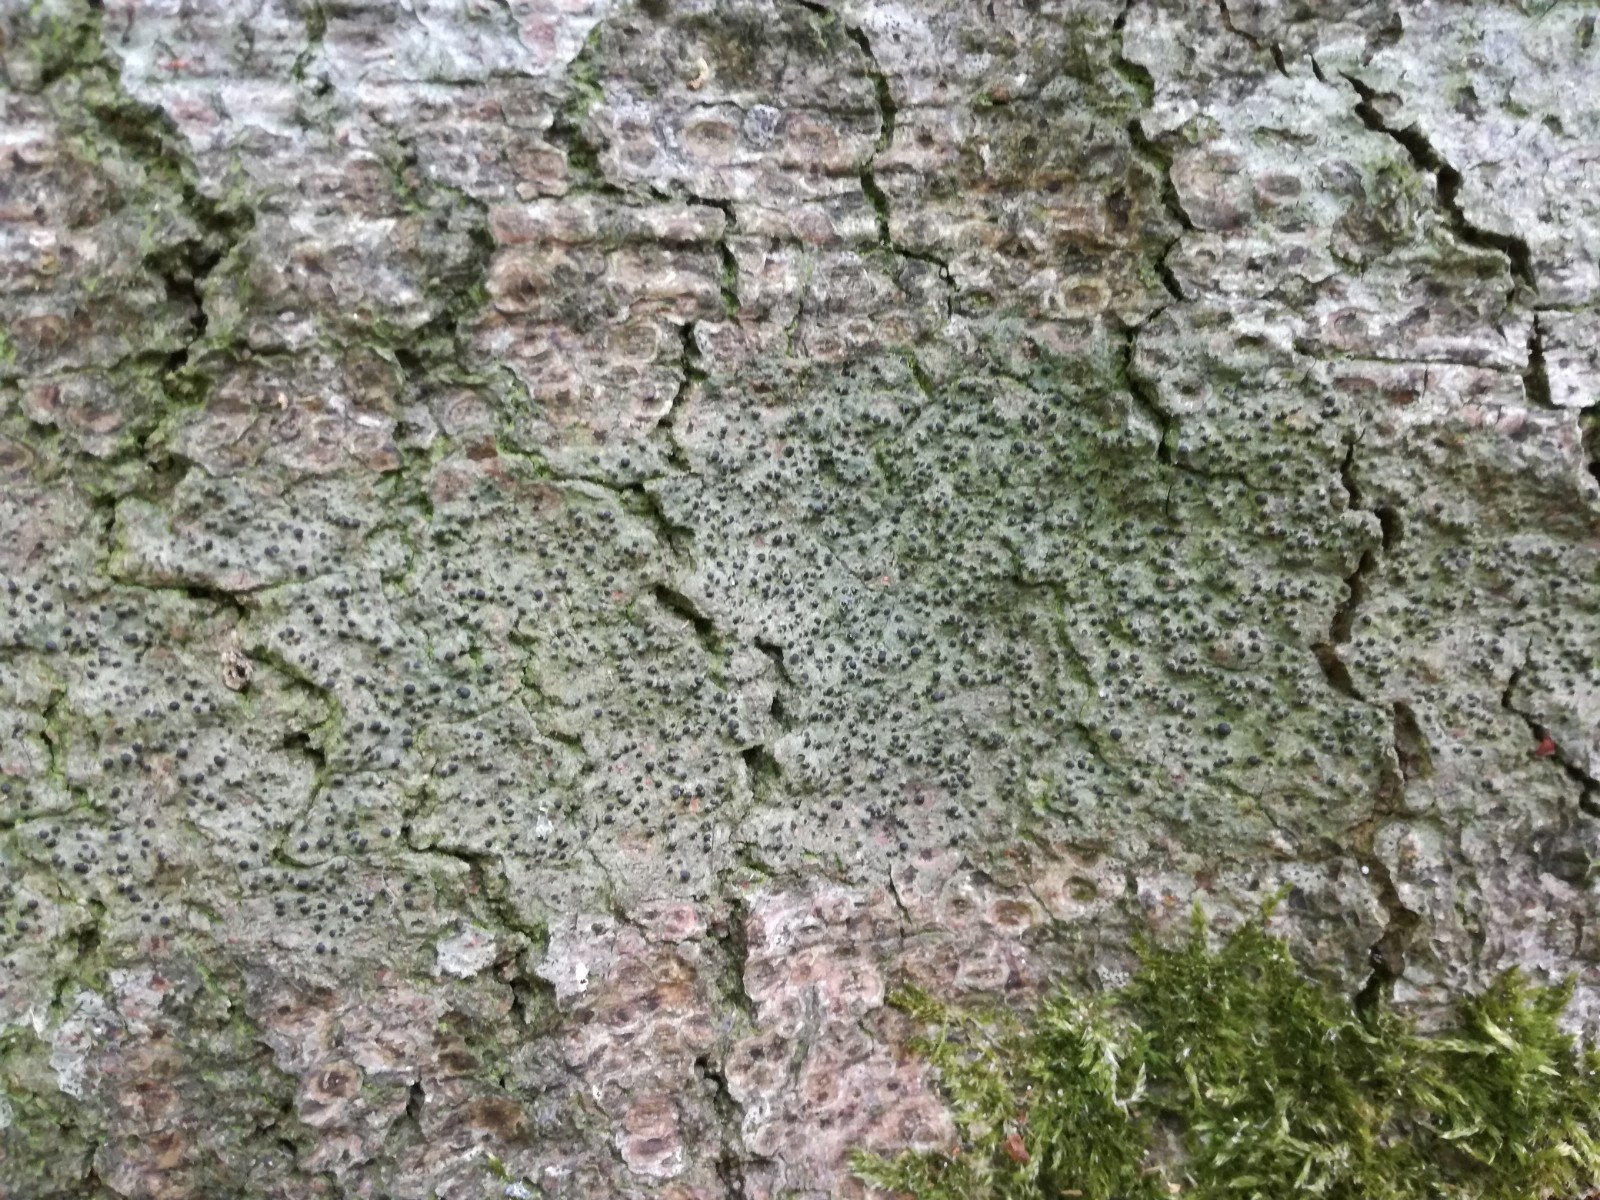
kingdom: Fungi
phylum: Ascomycota
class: Eurotiomycetes
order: Pyrenulales
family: Pyrenulaceae
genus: Pyrenula
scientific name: Pyrenula nitida
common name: glinsende kernelav
